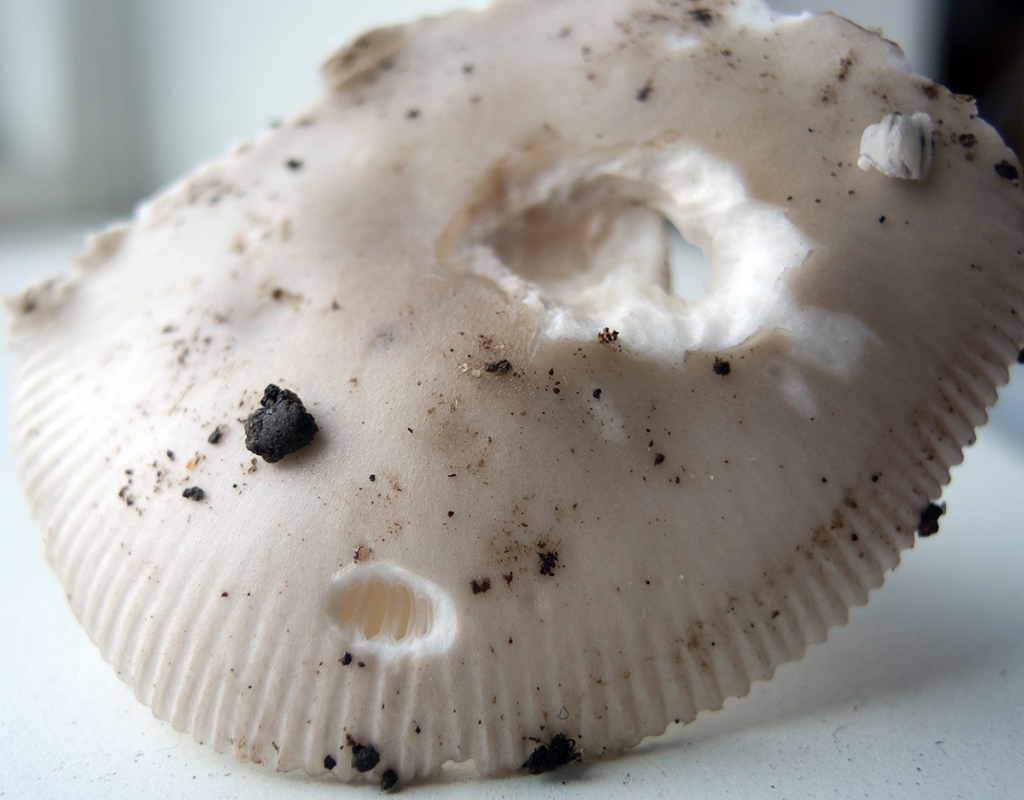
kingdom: Fungi
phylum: Basidiomycota
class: Agaricomycetes
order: Agaricales
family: Amanitaceae
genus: Amanita
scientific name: Amanita huijsmanii
